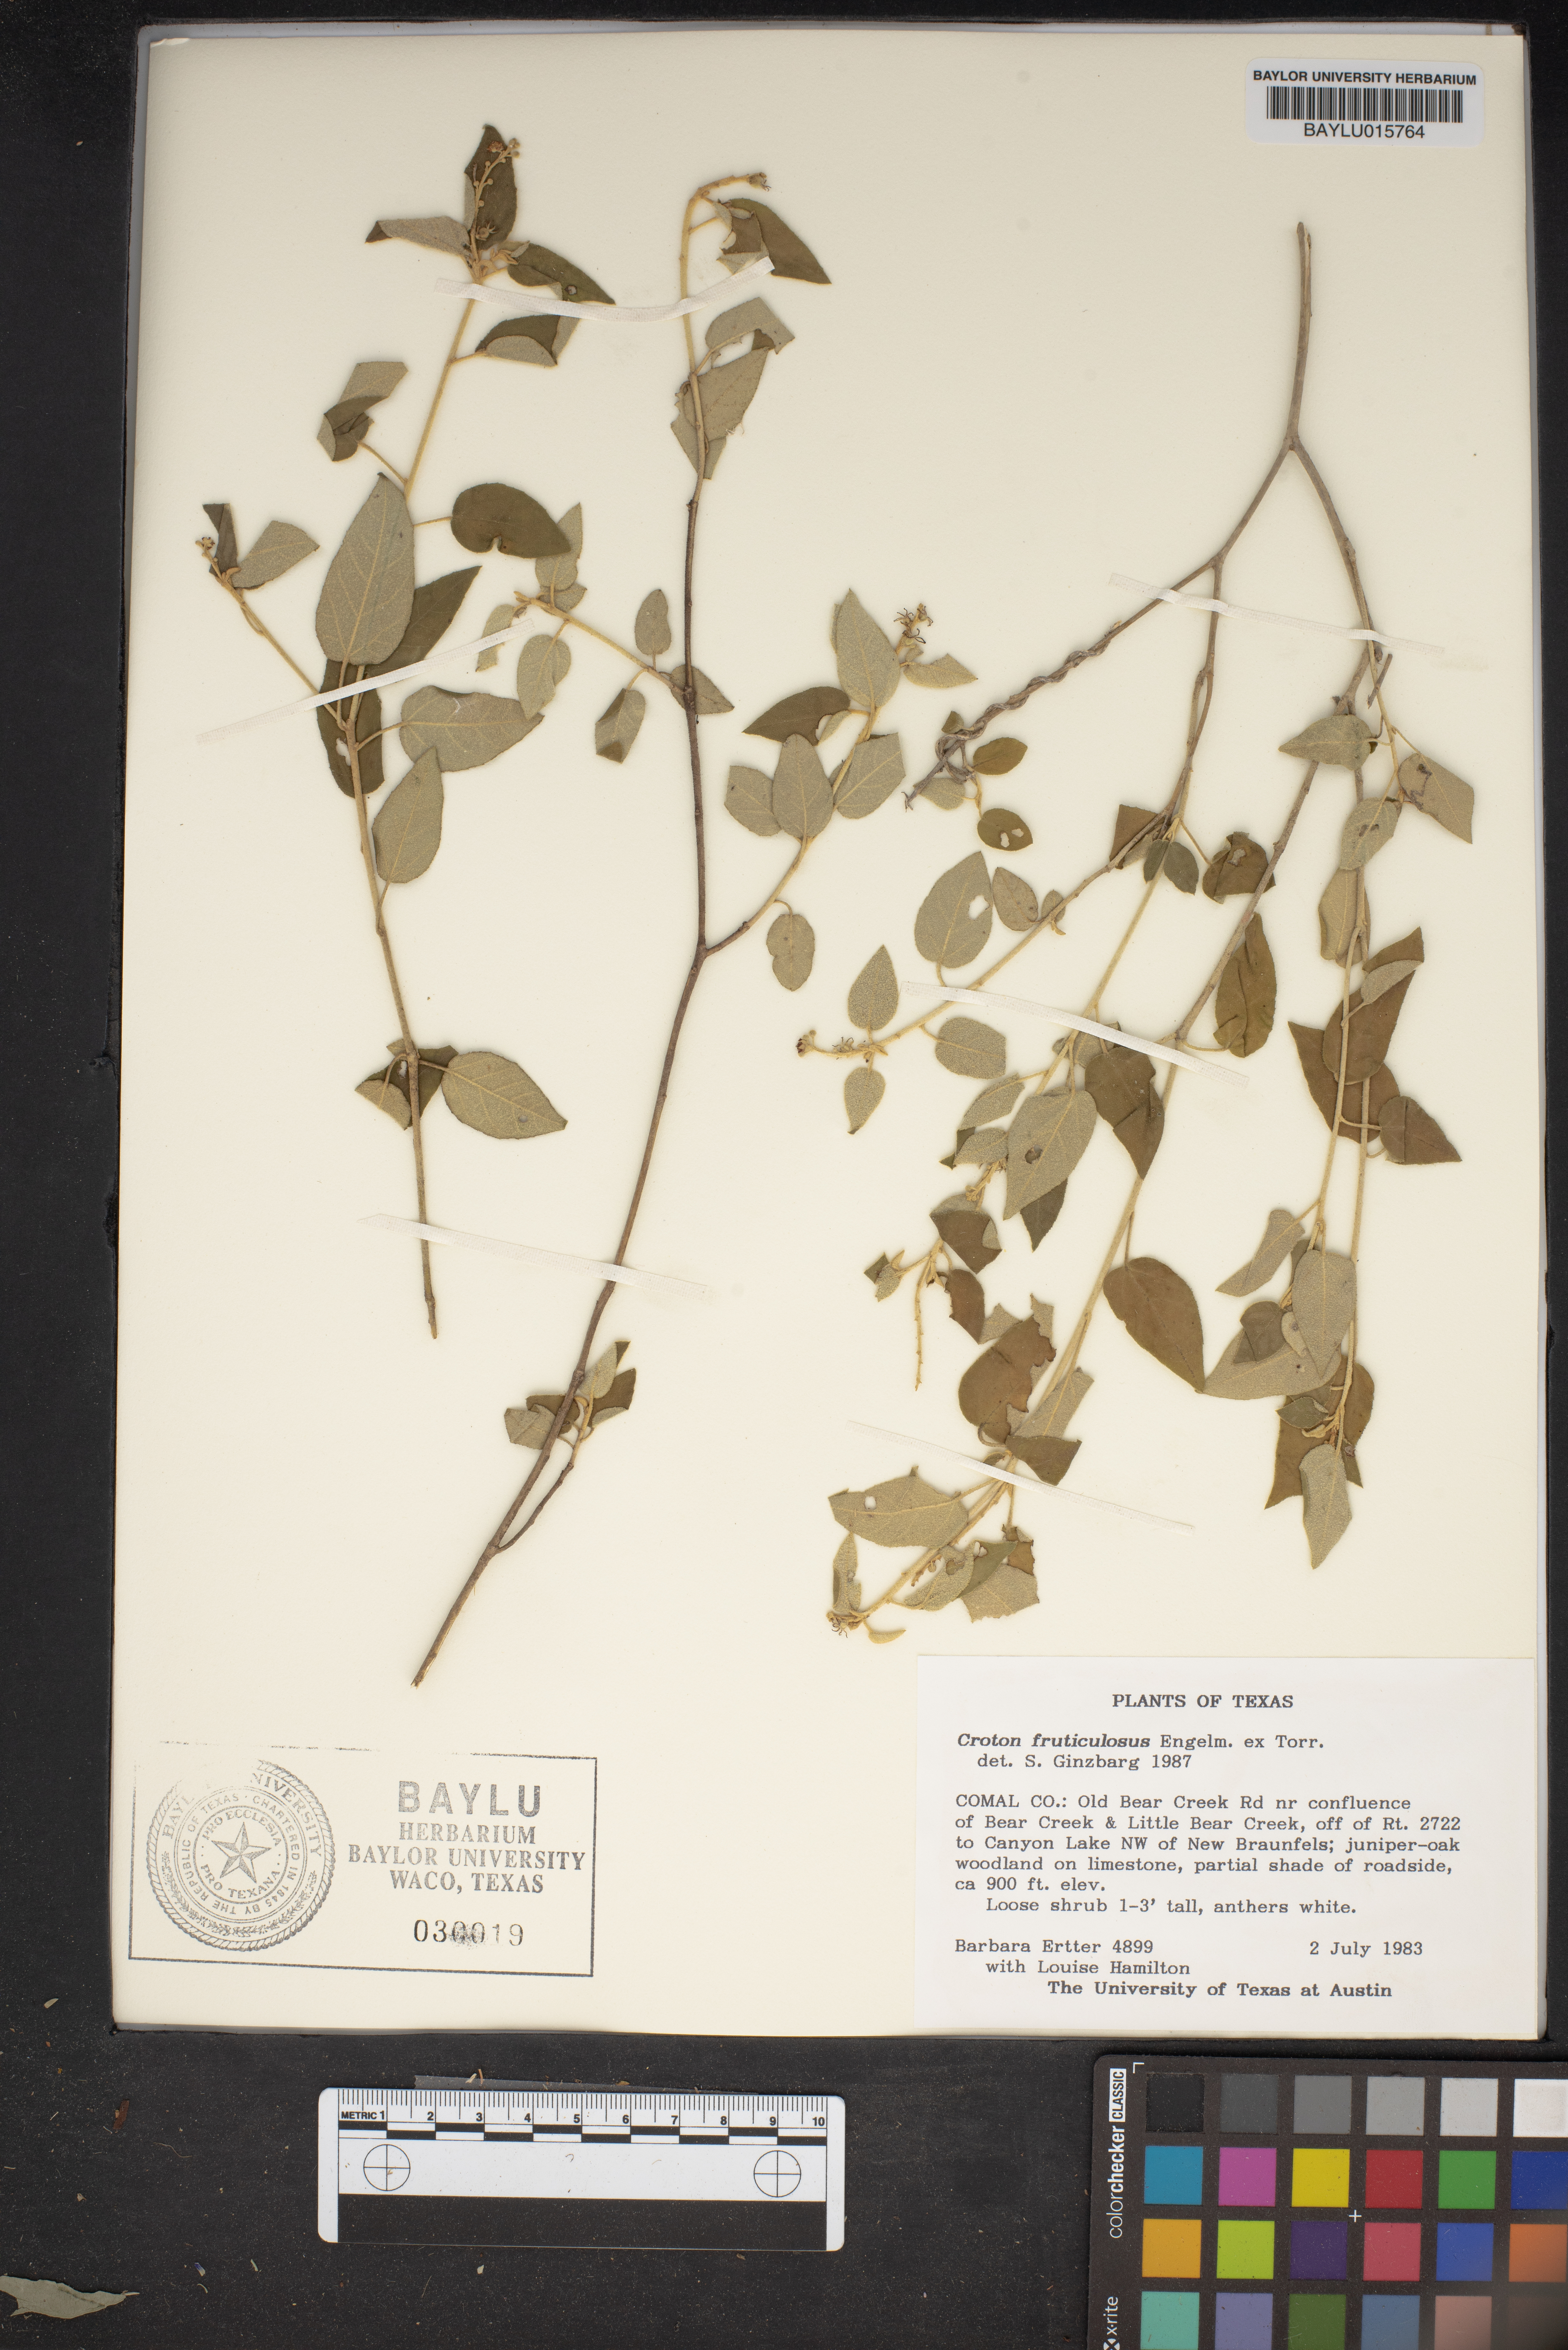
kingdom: Plantae
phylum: Tracheophyta
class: Magnoliopsida
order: Malpighiales
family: Euphorbiaceae
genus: Croton
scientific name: Croton fruticulosus
